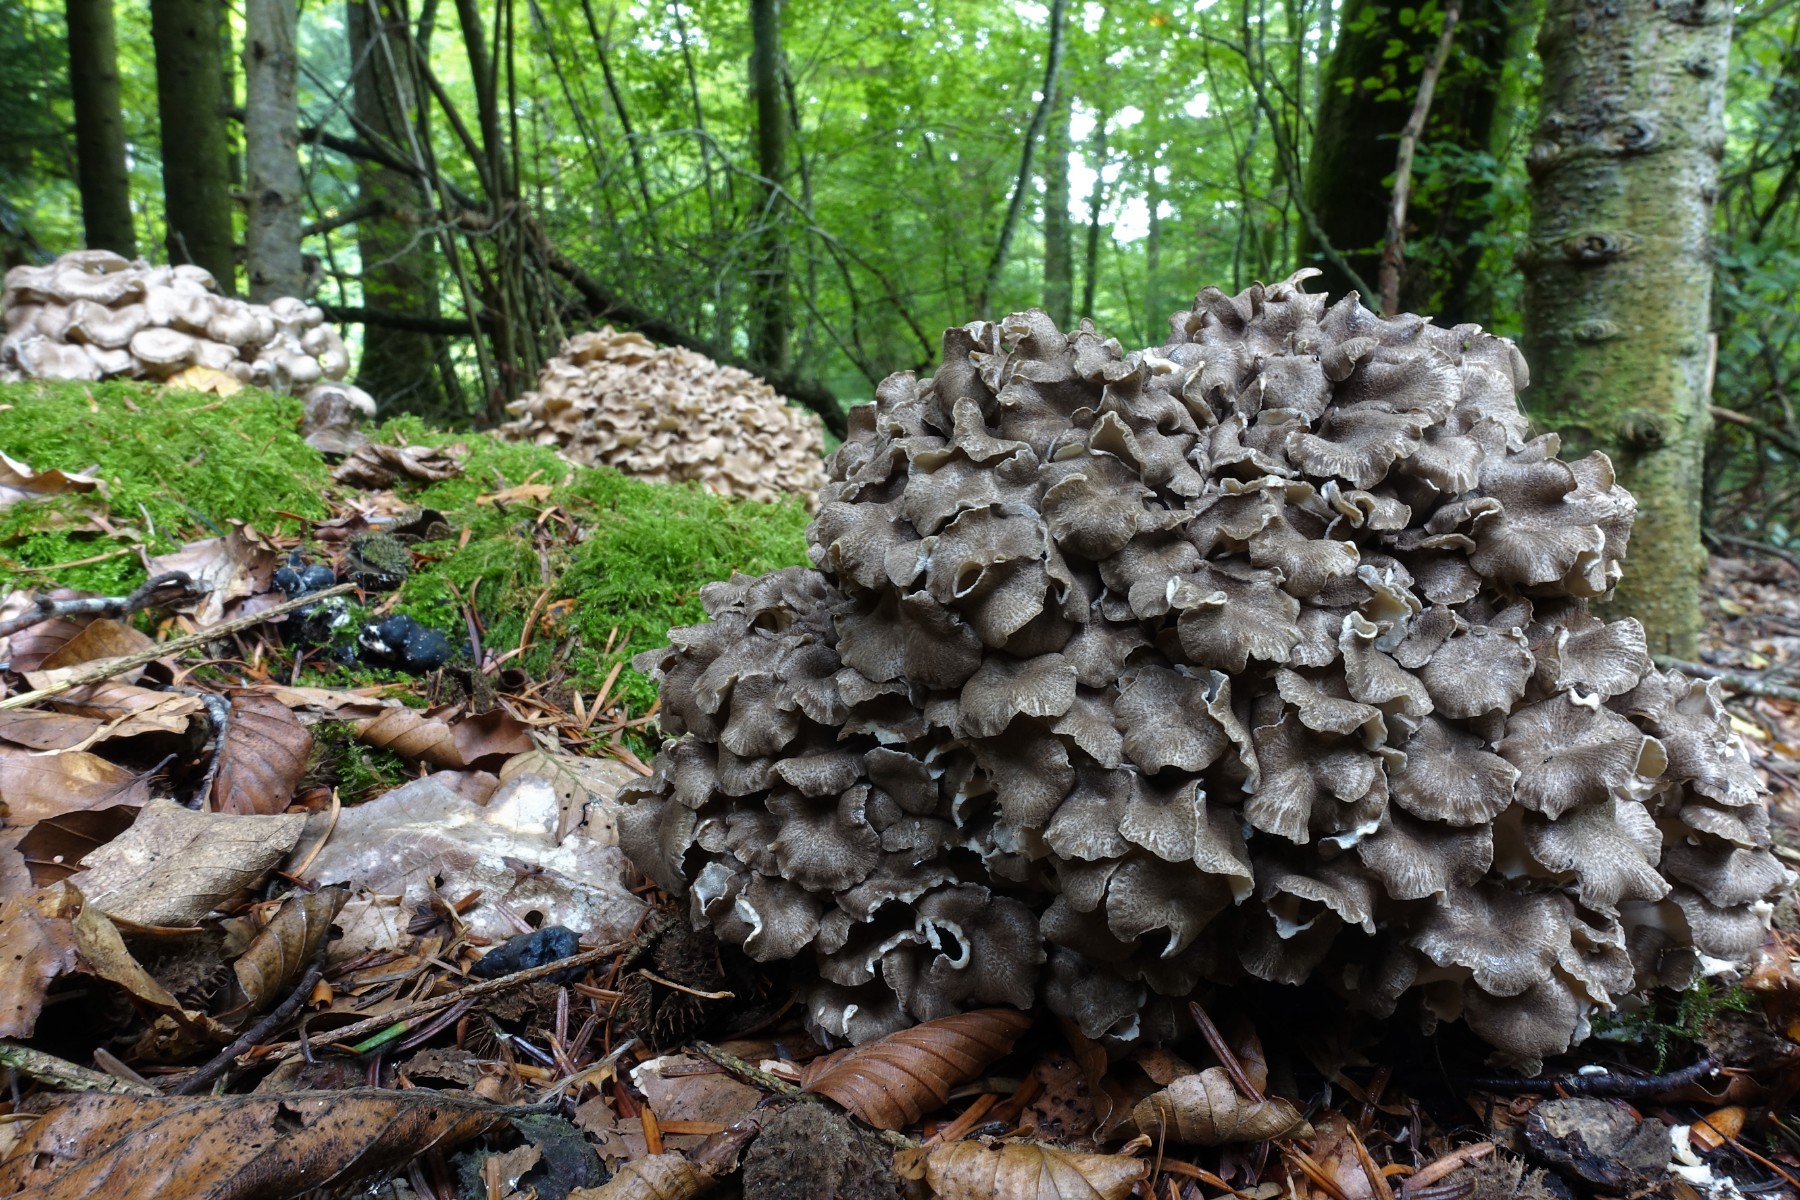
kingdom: Fungi
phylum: Basidiomycota
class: Agaricomycetes
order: Polyporales
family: Polyporaceae
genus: Polyporus
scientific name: Polyporus umbellatus
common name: skærmformet stilkporesvamp
